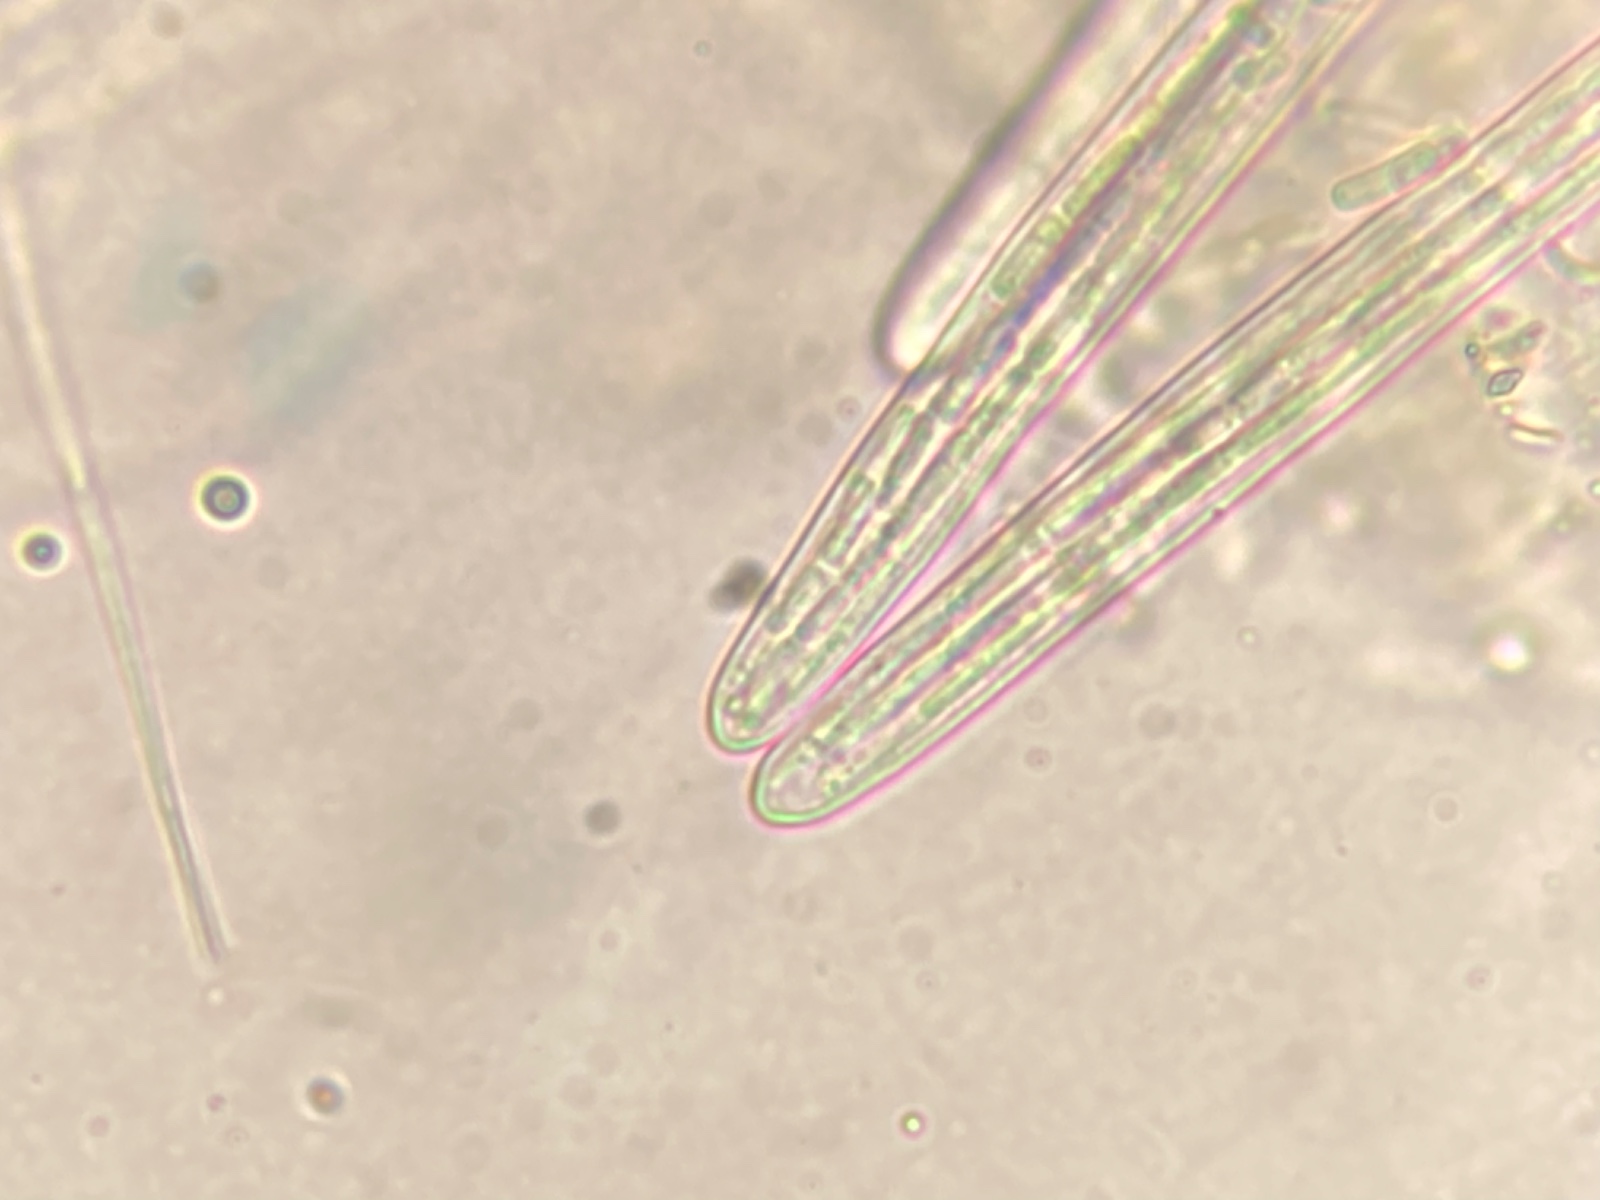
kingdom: Fungi
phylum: Ascomycota
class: Lecanoromycetes
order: Ostropales
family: Stictidaceae
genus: Schizoxylon
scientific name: Schizoxylon
